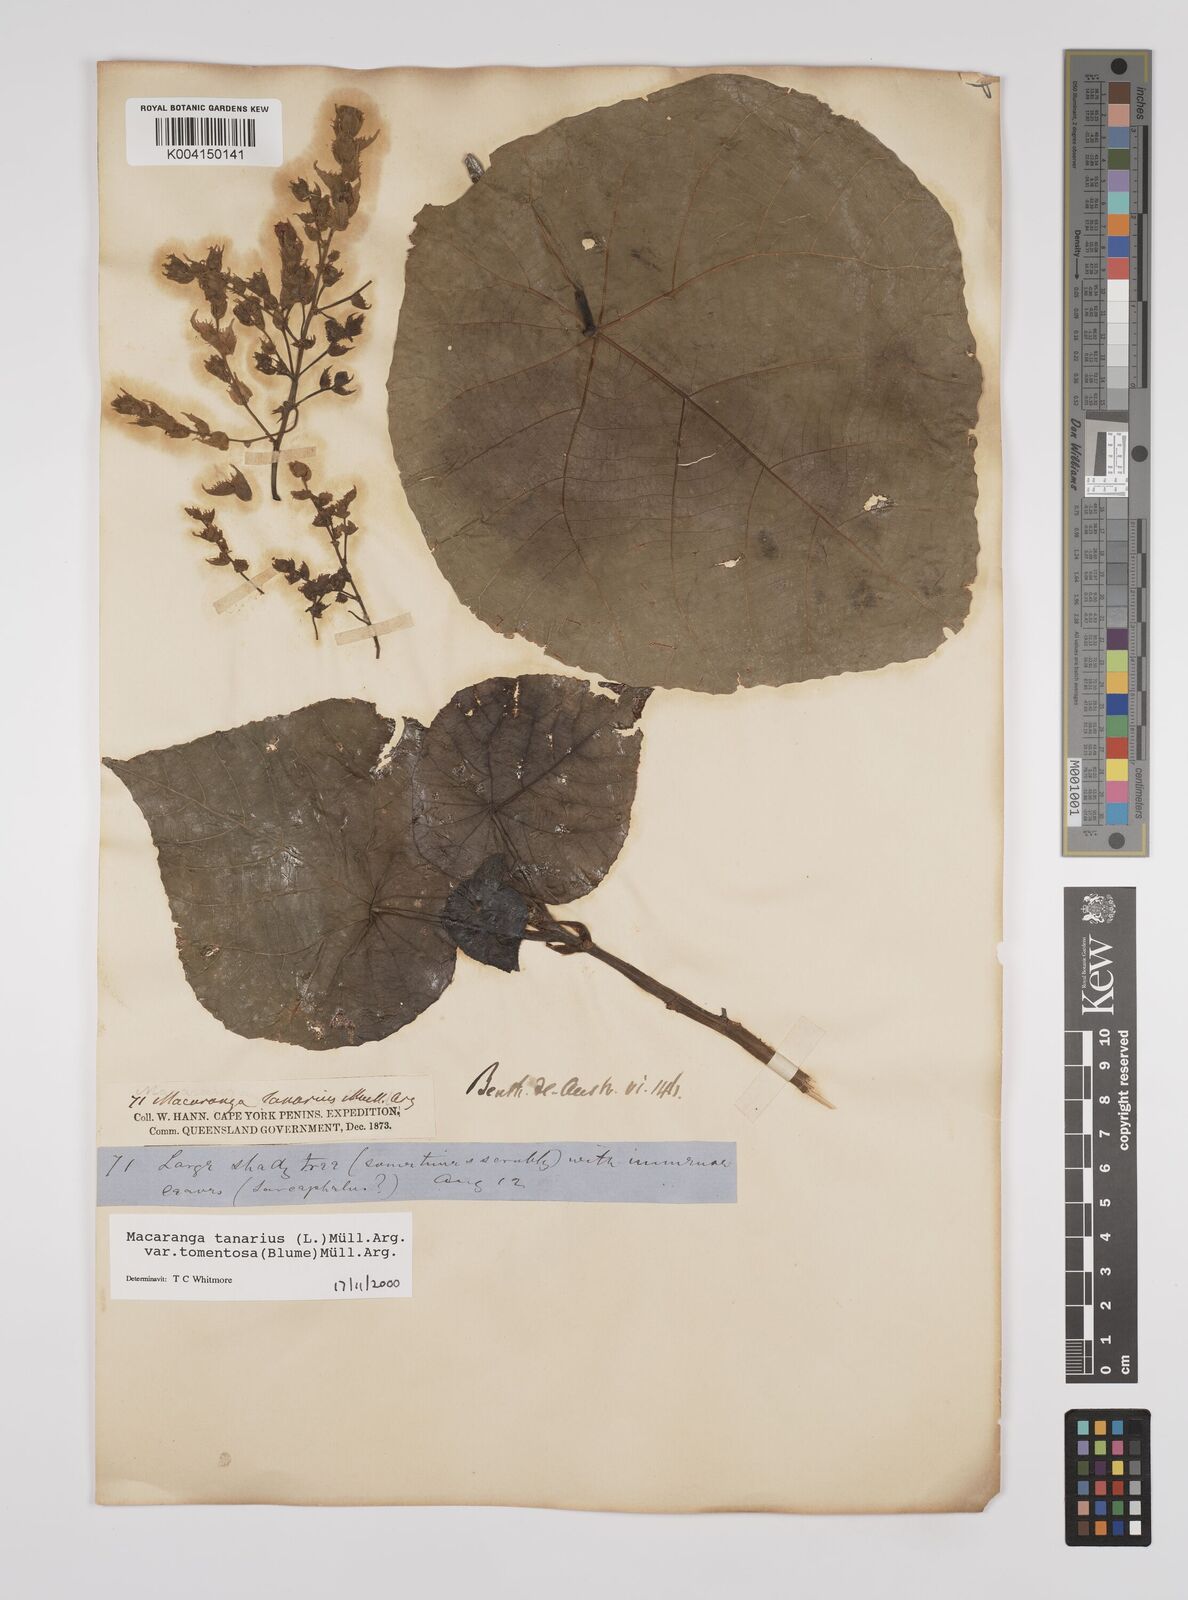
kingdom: Plantae
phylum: Tracheophyta
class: Magnoliopsida
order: Malpighiales
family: Euphorbiaceae
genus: Macaranga
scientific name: Macaranga tanarius
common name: Parasol leaf tree
